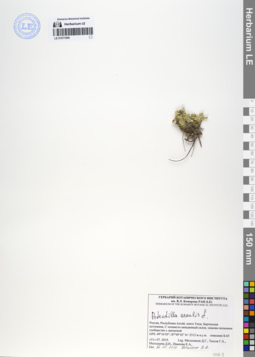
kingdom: Plantae
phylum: Tracheophyta
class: Magnoliopsida
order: Rosales
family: Rosaceae
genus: Potentilla
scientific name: Potentilla acaulis
